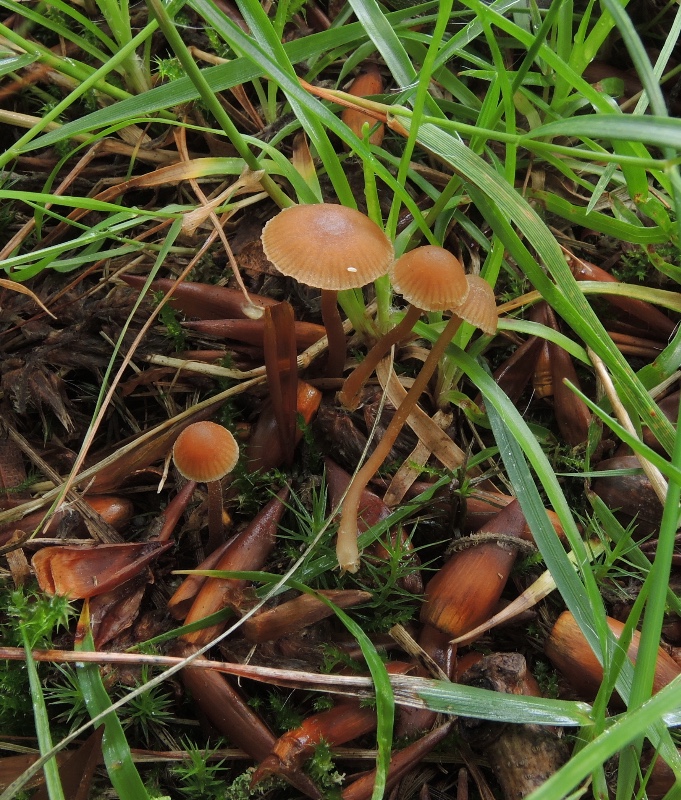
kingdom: Fungi
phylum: Basidiomycota
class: Agaricomycetes
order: Agaricales
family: Hymenogastraceae
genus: Galerina
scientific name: Galerina
